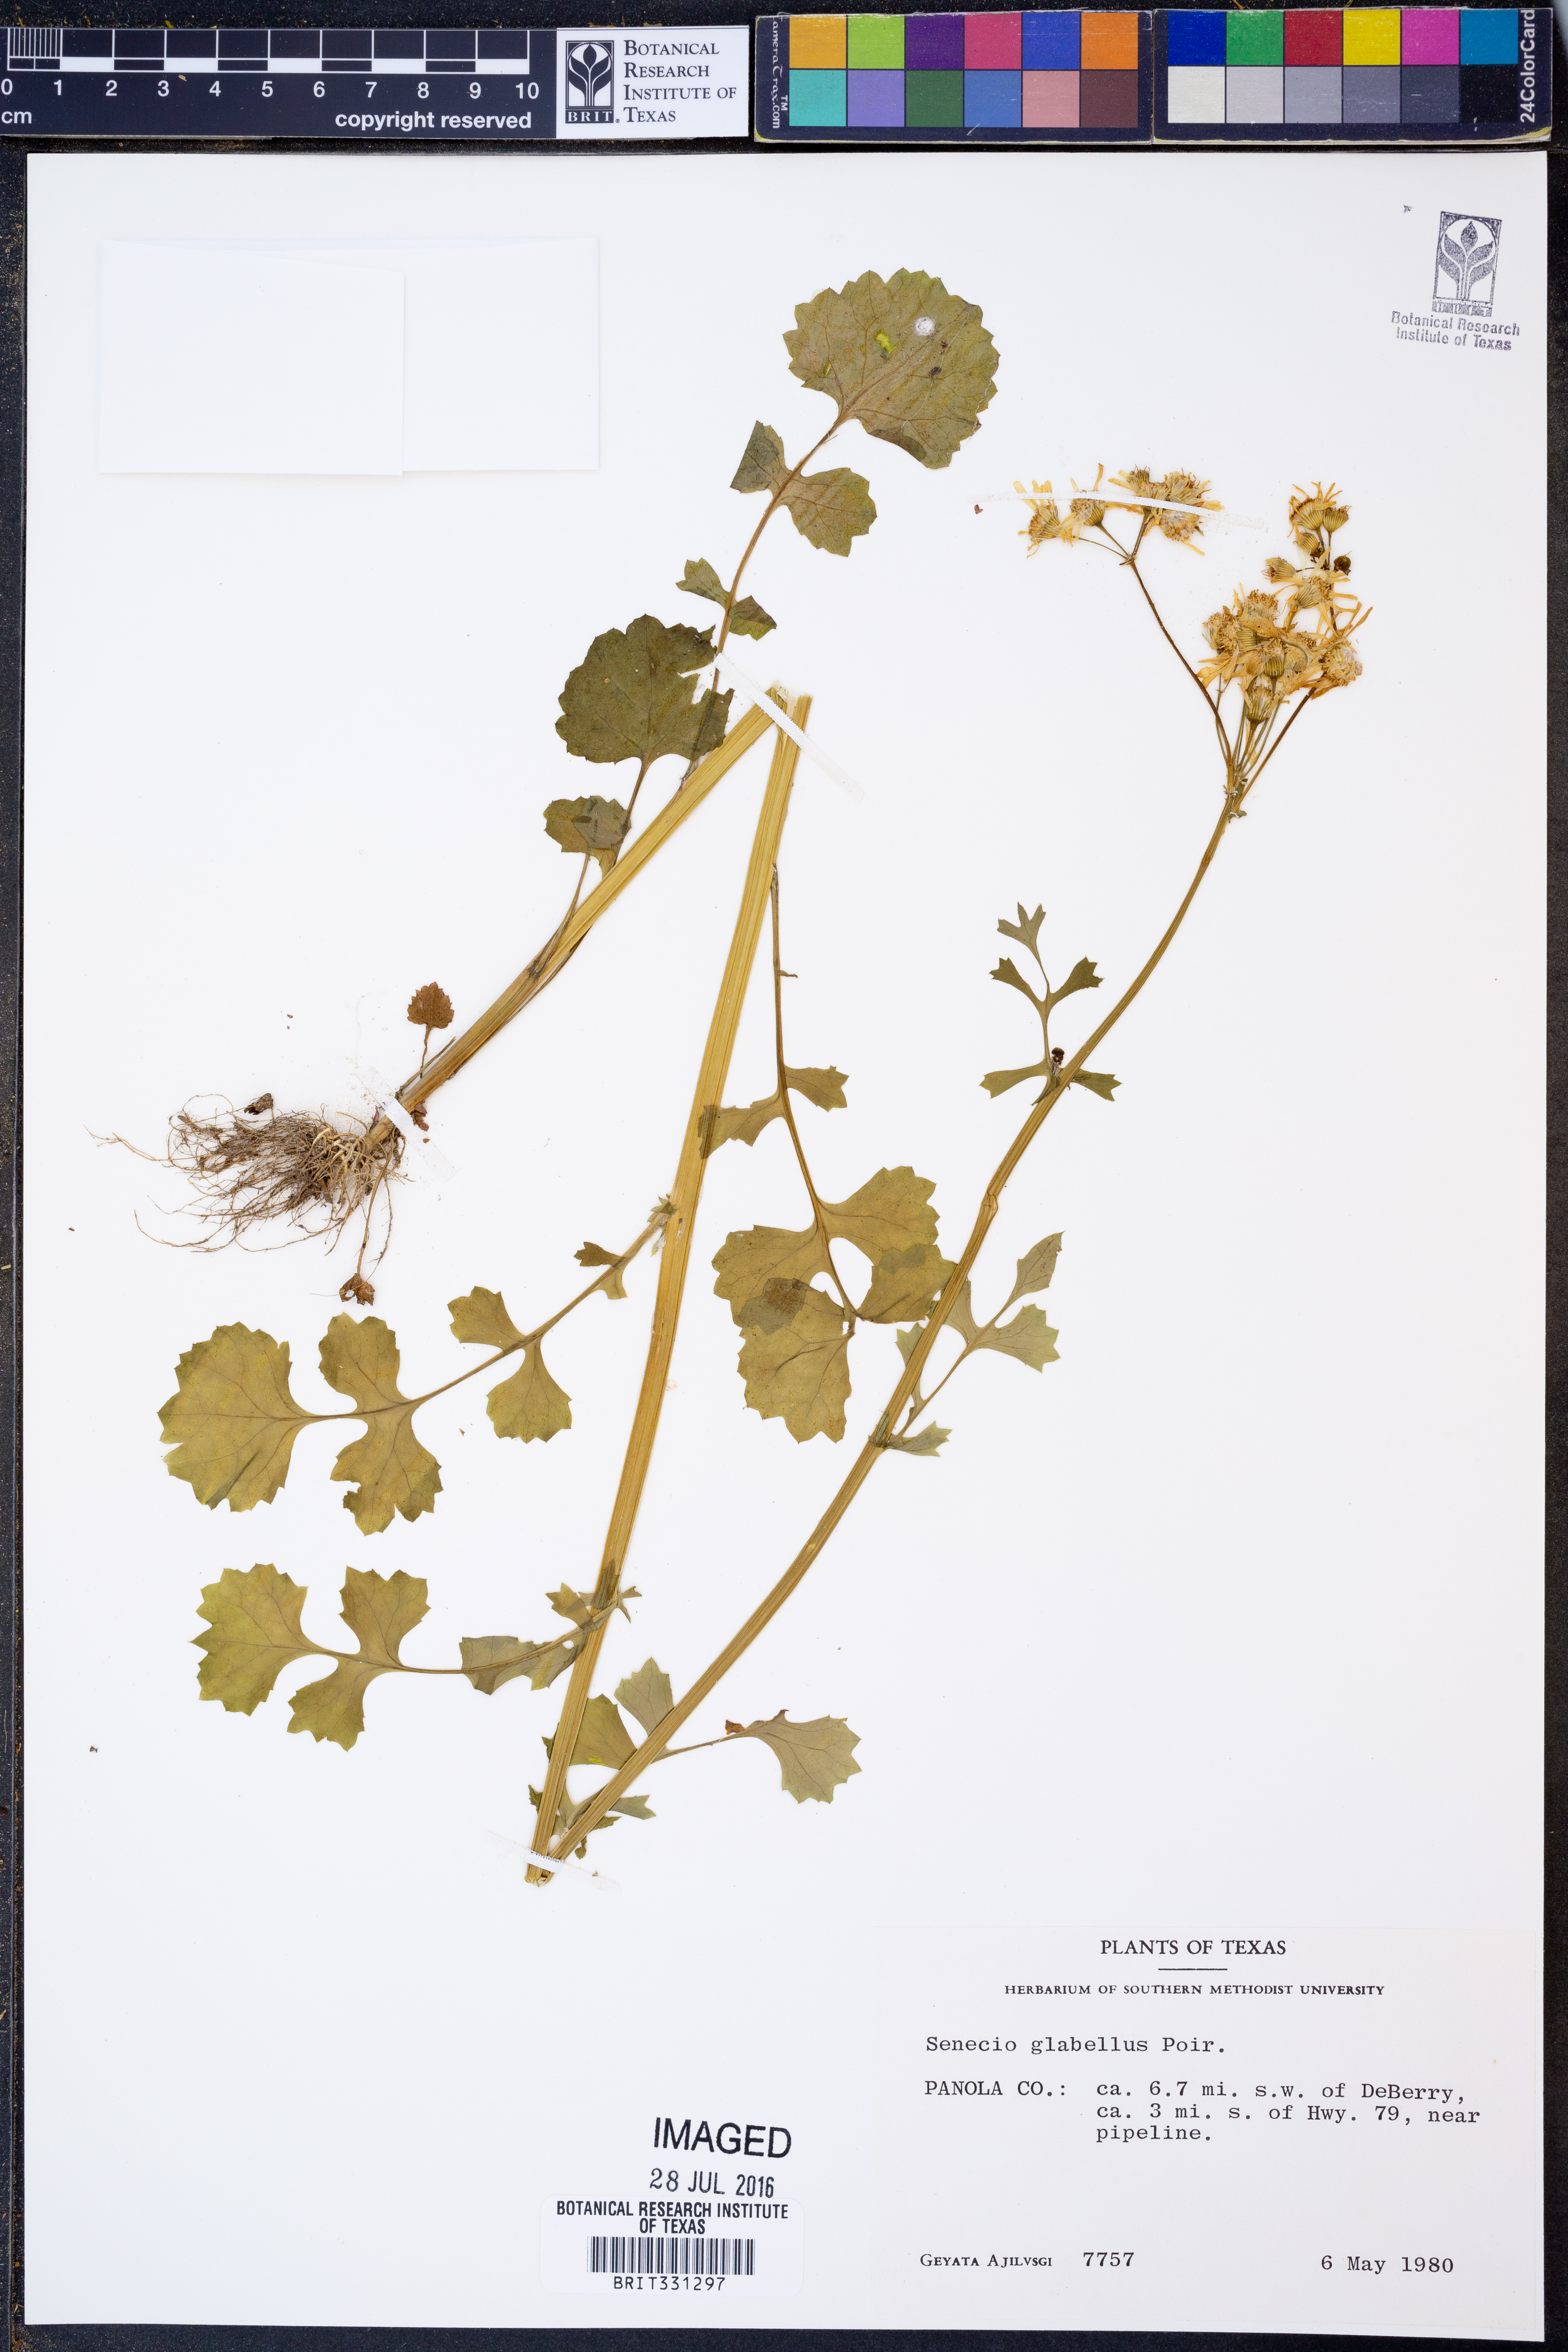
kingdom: Plantae
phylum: Tracheophyta
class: Magnoliopsida
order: Asterales
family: Asteraceae
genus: Tephroseris
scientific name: Tephroseris praticola
